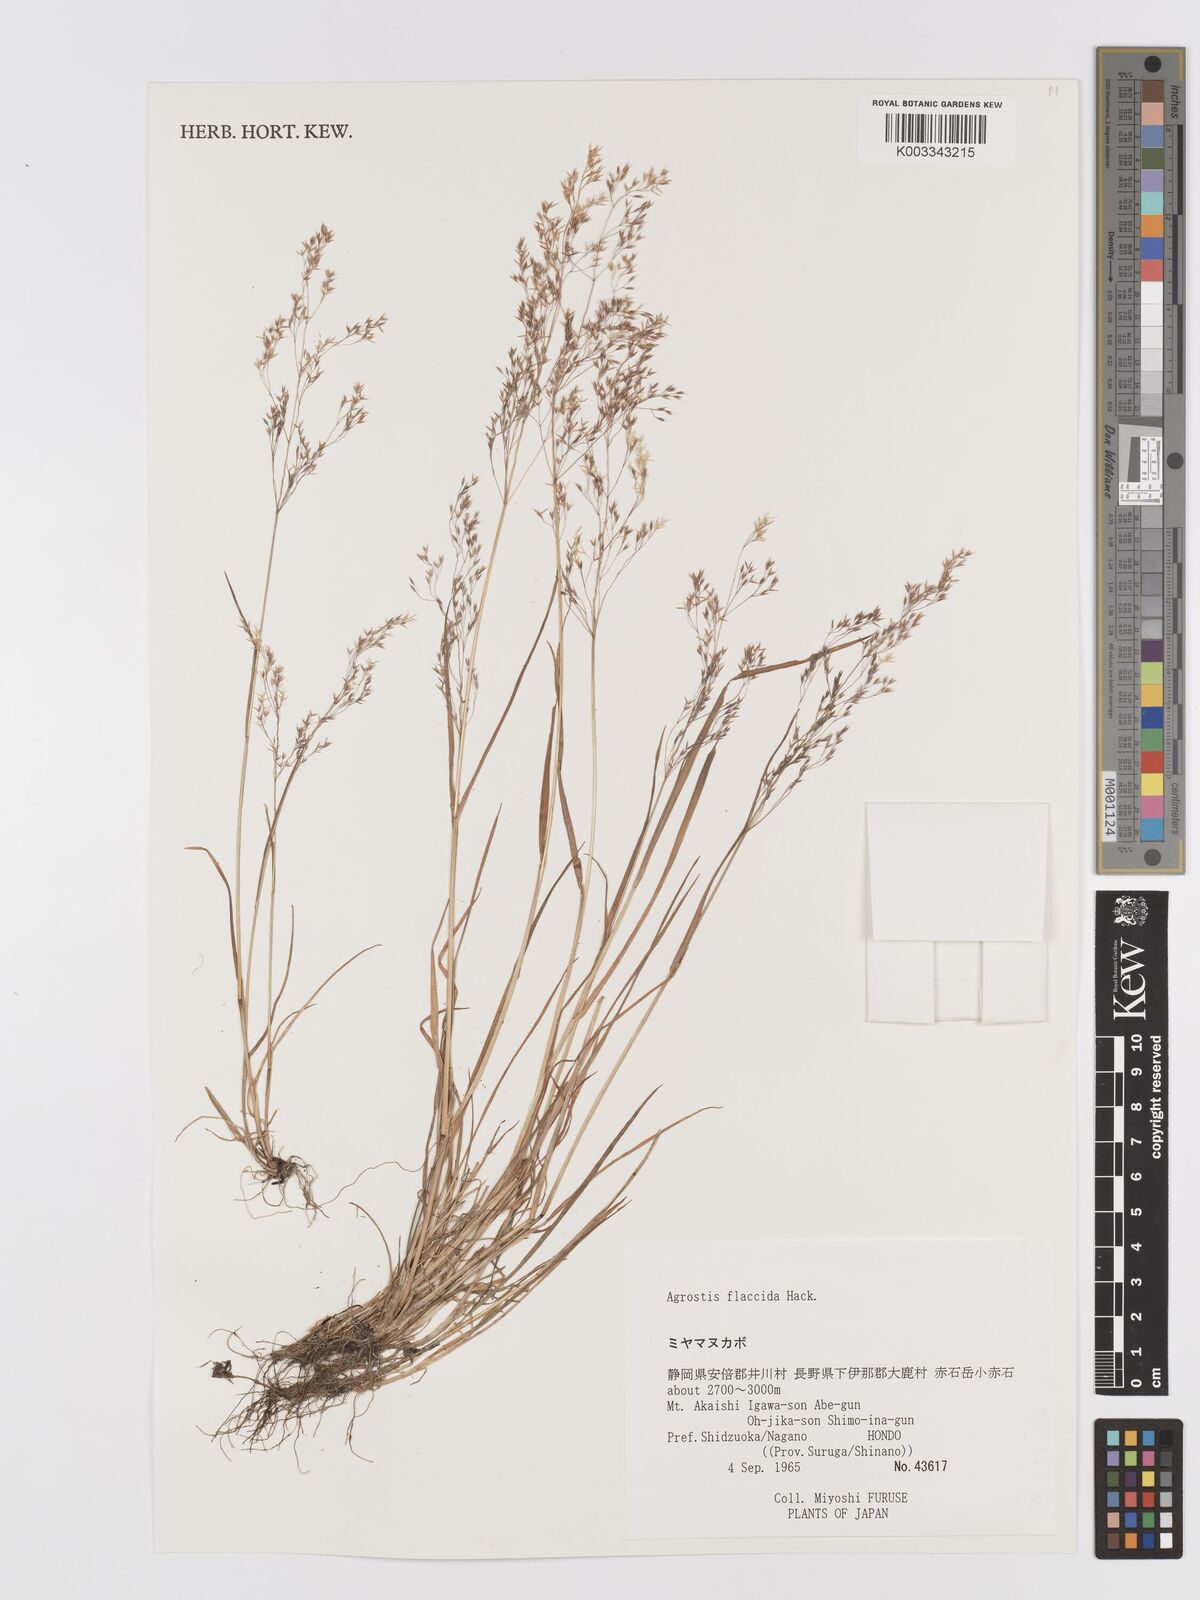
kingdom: Plantae
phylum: Tracheophyta
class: Liliopsida
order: Poales
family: Poaceae
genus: Agrostis
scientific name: Agrostis flaccida
